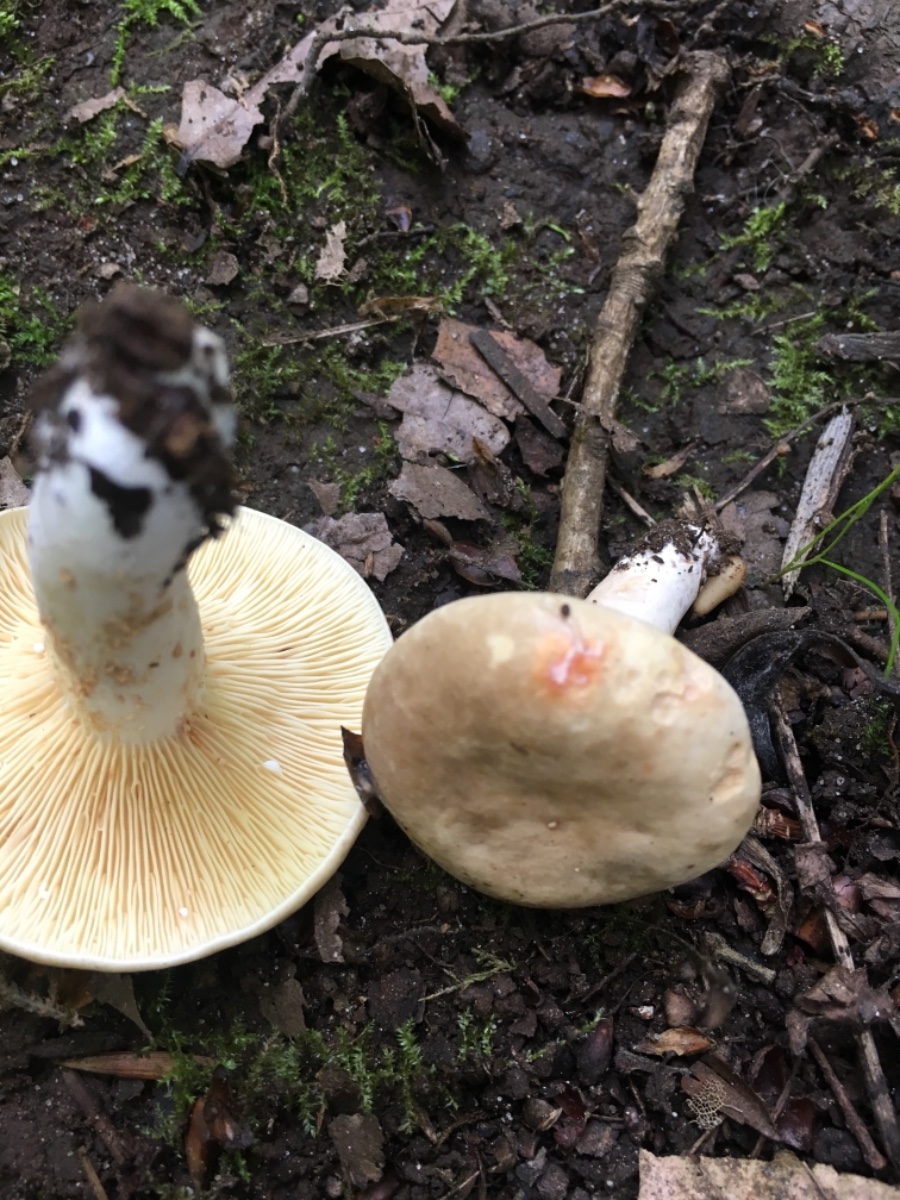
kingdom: Fungi
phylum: Basidiomycota
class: Agaricomycetes
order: Russulales
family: Russulaceae
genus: Lactarius
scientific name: Lactarius azonites
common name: røggrå mælkehat
